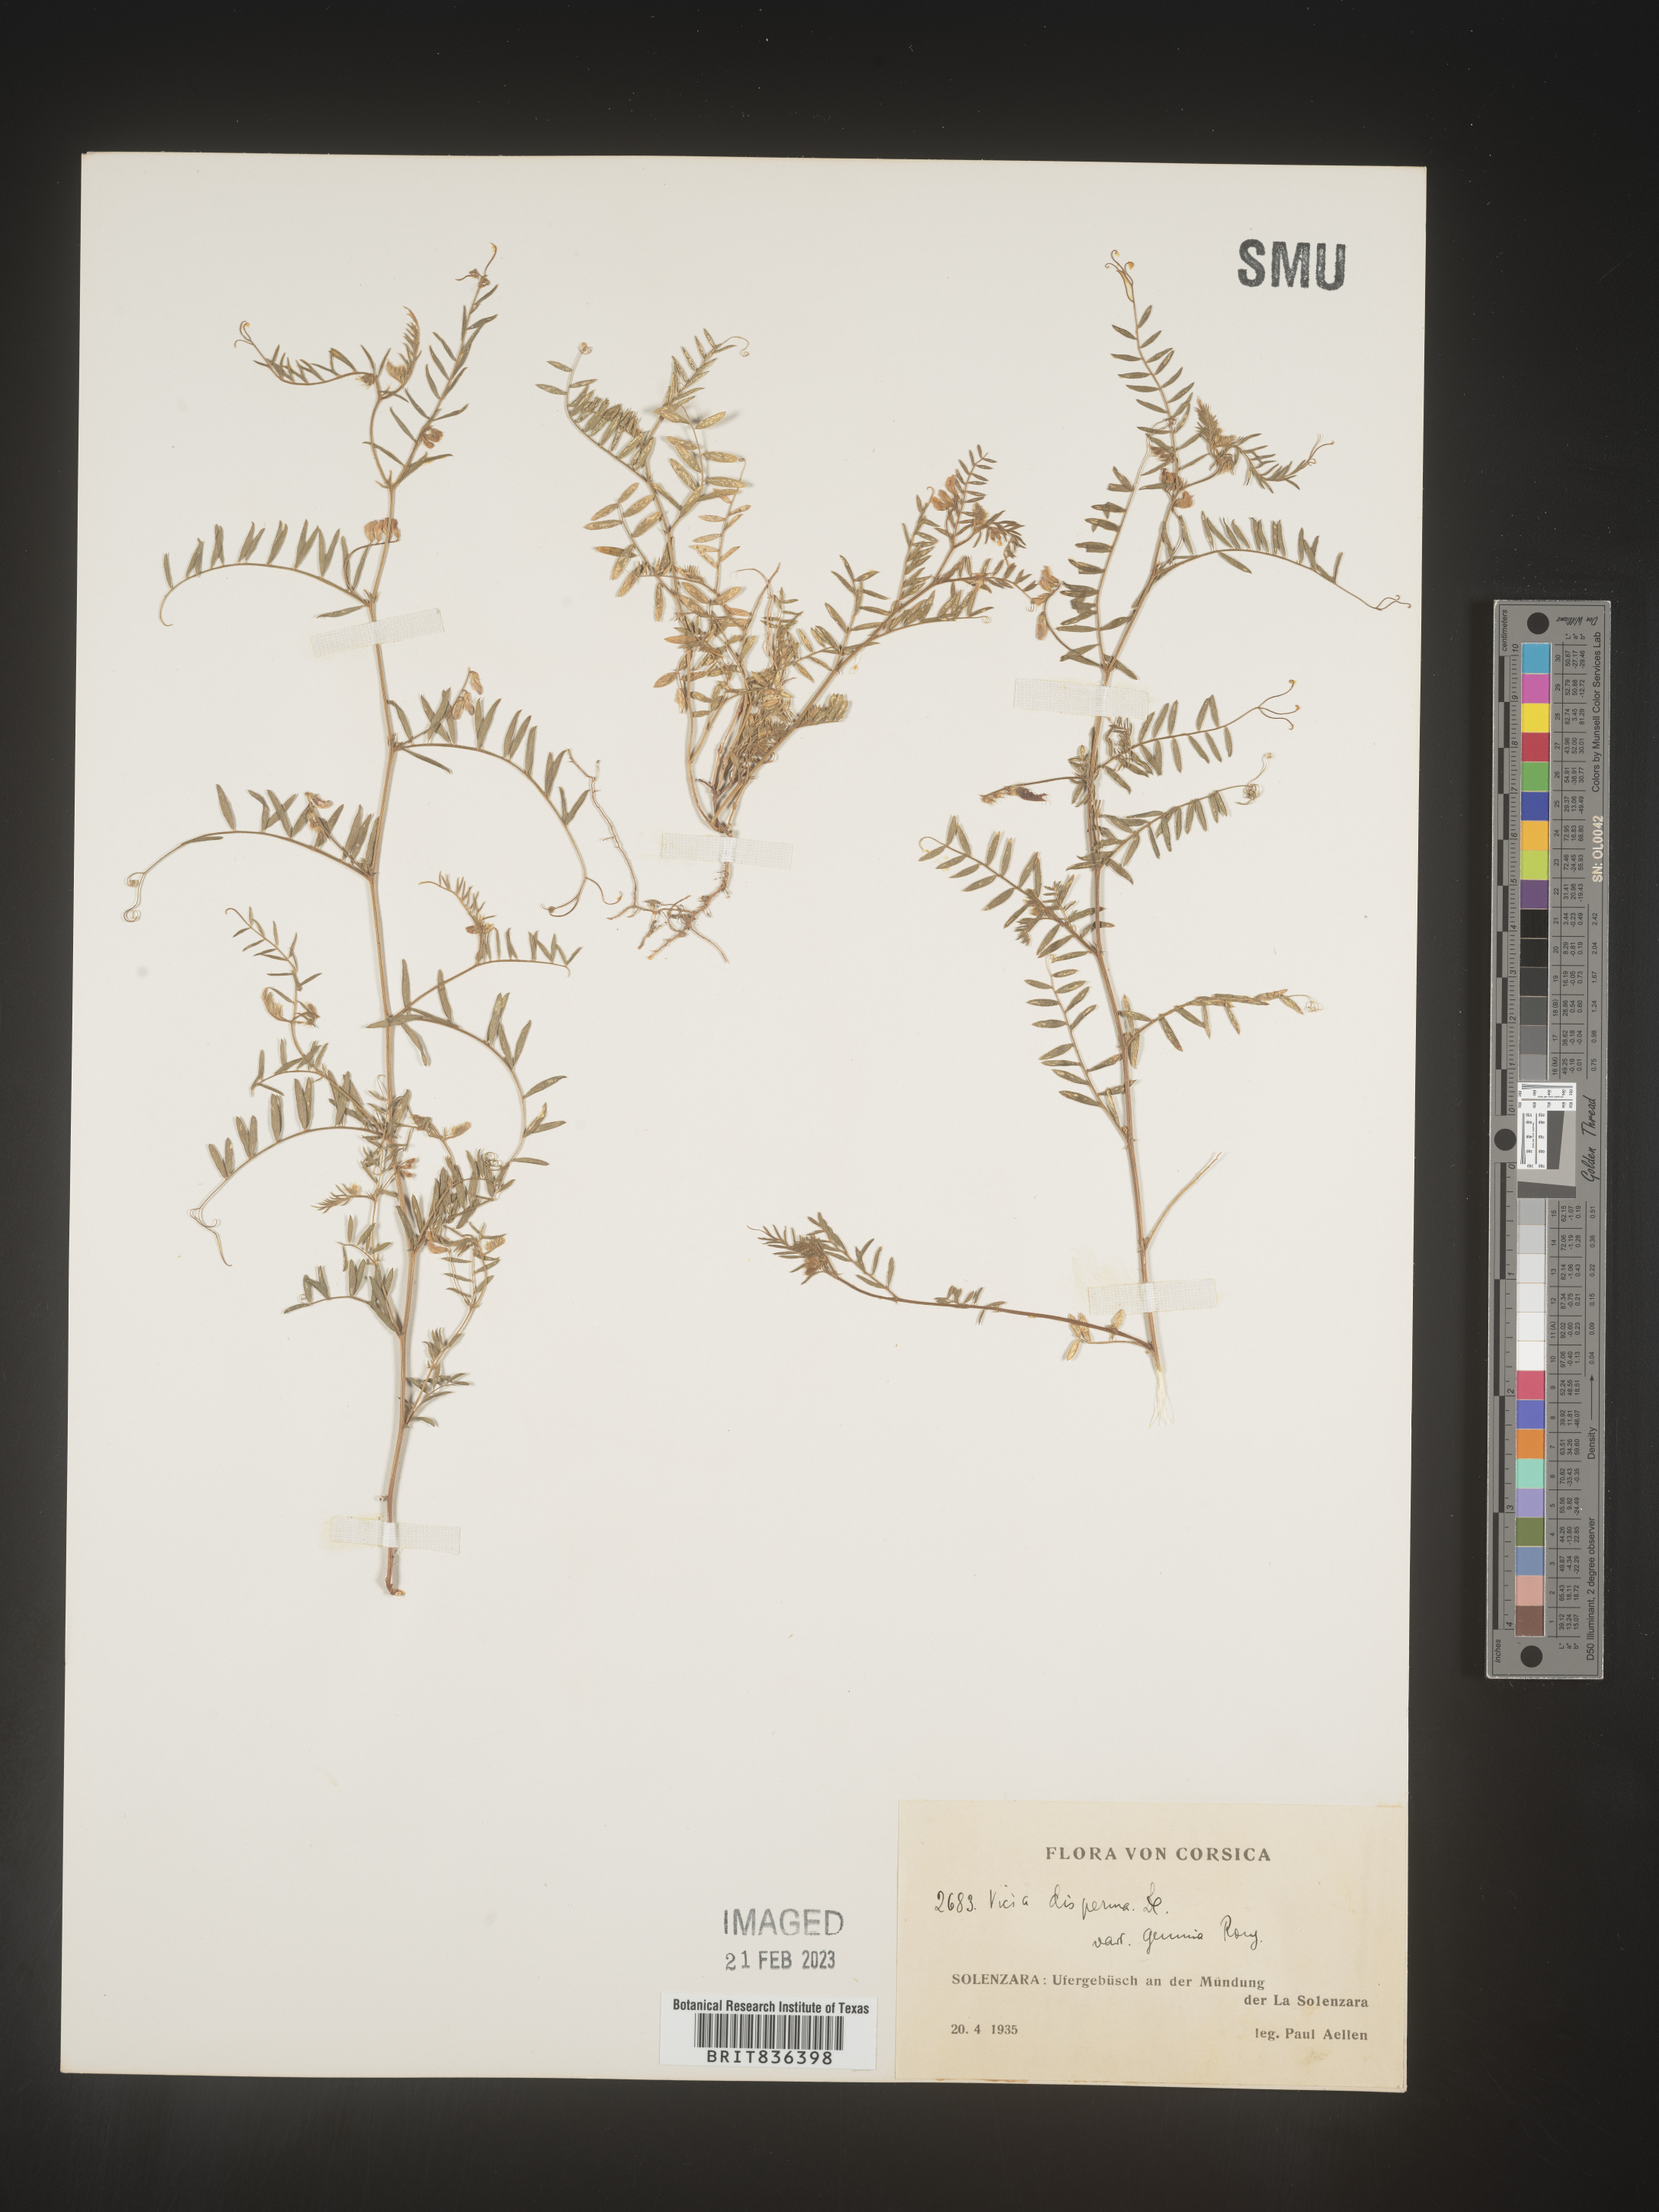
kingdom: Plantae
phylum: Tracheophyta
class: Magnoliopsida
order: Fabales
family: Fabaceae
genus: Vicia
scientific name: Vicia
